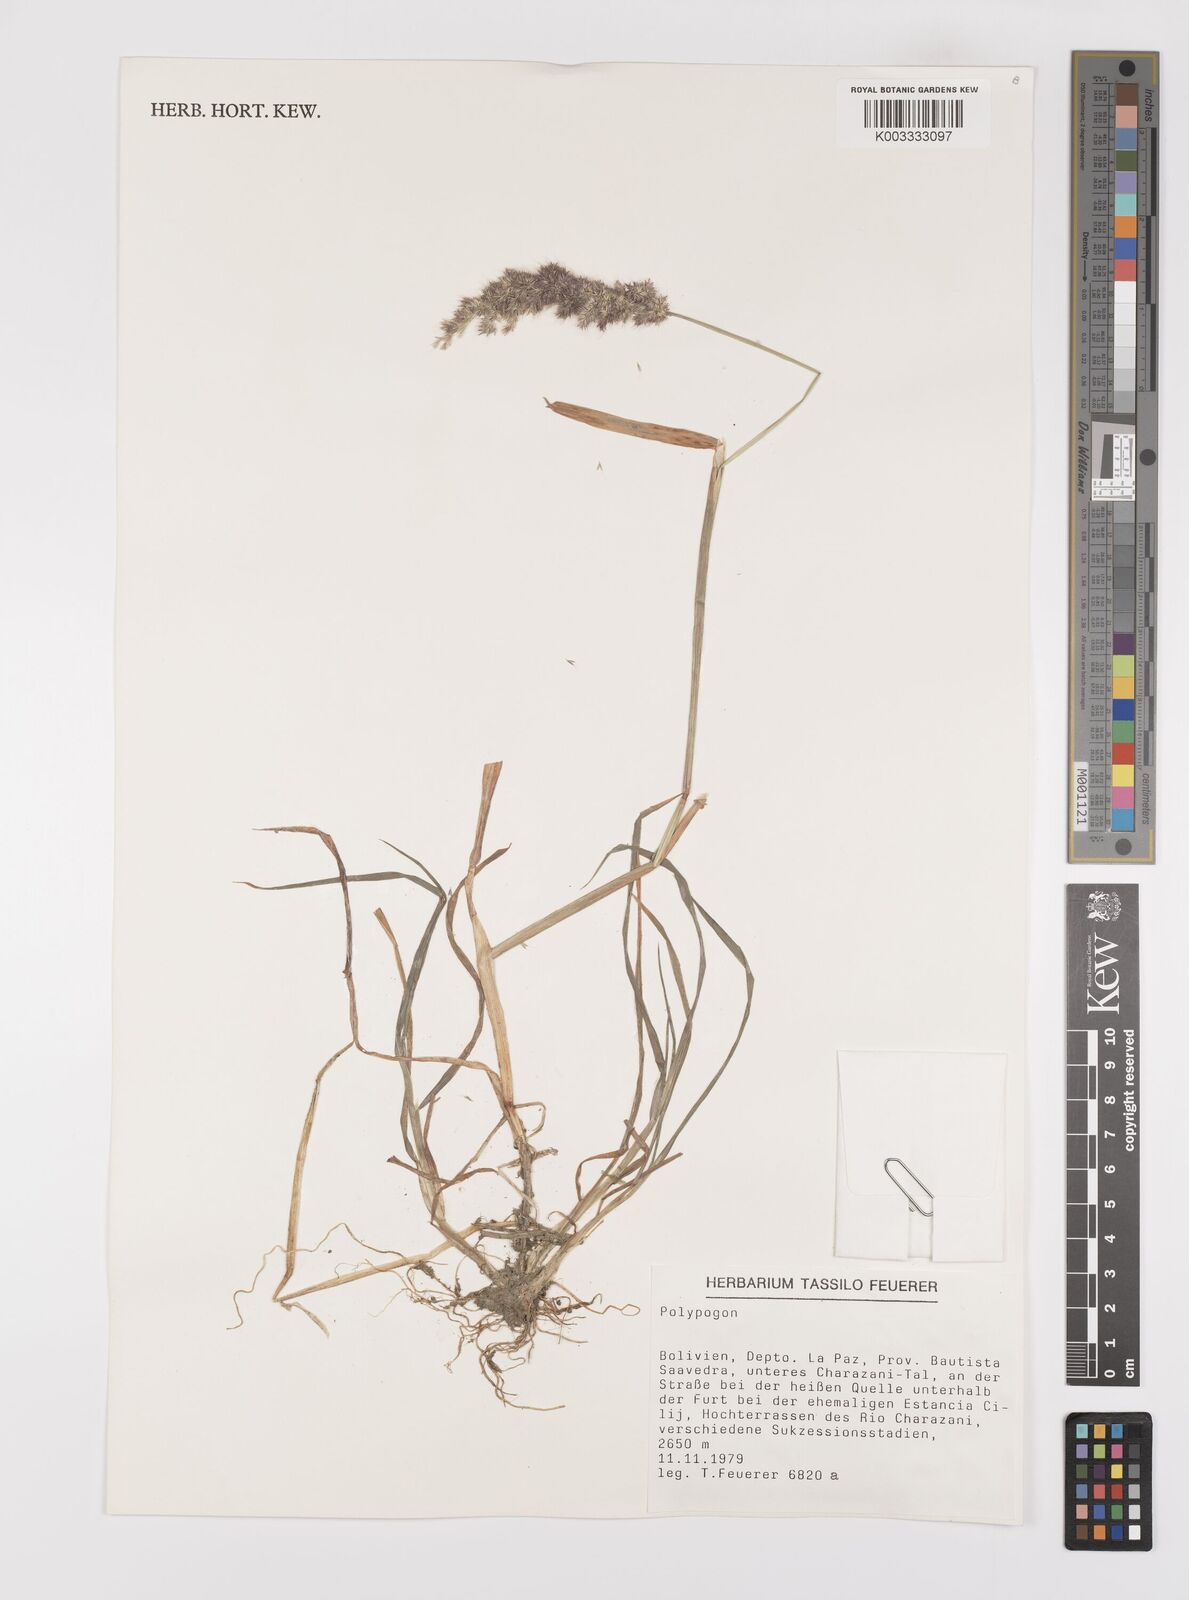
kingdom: Plantae
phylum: Tracheophyta
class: Liliopsida
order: Poales
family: Poaceae
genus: Polypogon
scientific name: Polypogon interruptus
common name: Ditch polypogon
